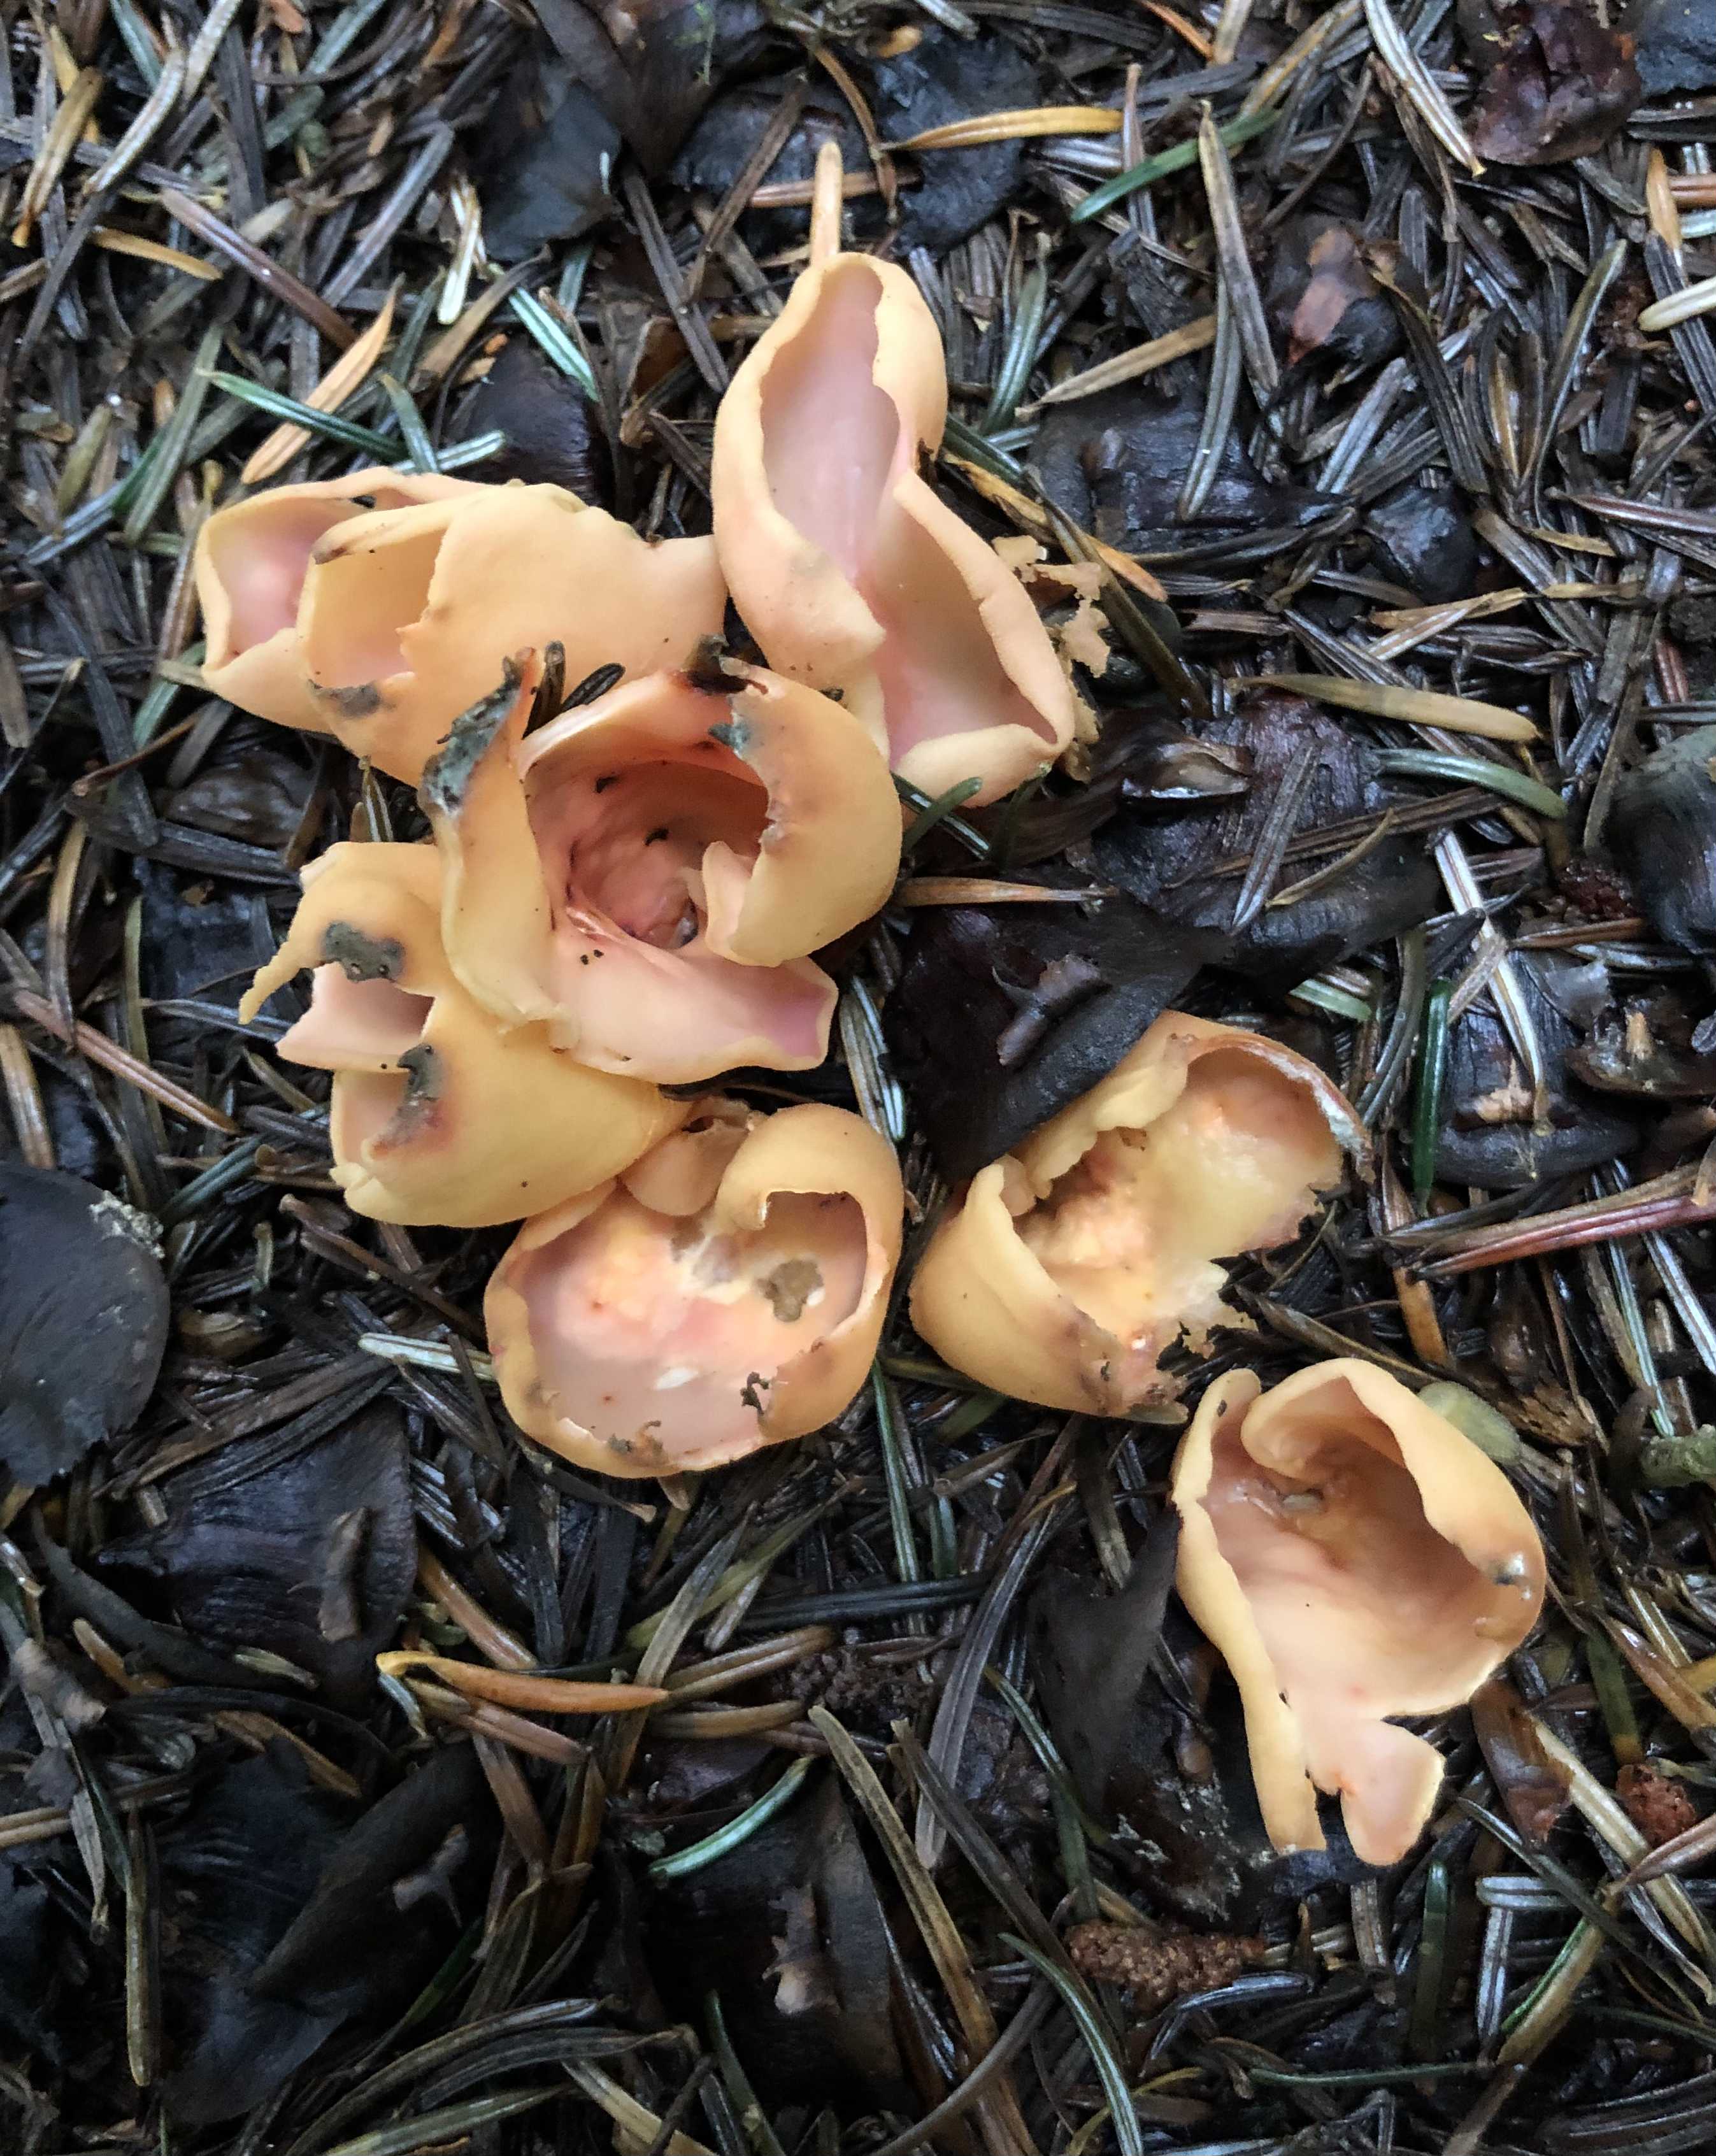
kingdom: Fungi
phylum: Ascomycota
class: Pezizomycetes
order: Pezizales
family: Otideaceae
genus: Otidea
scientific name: Otidea onotica
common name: æsel-ørebæger
